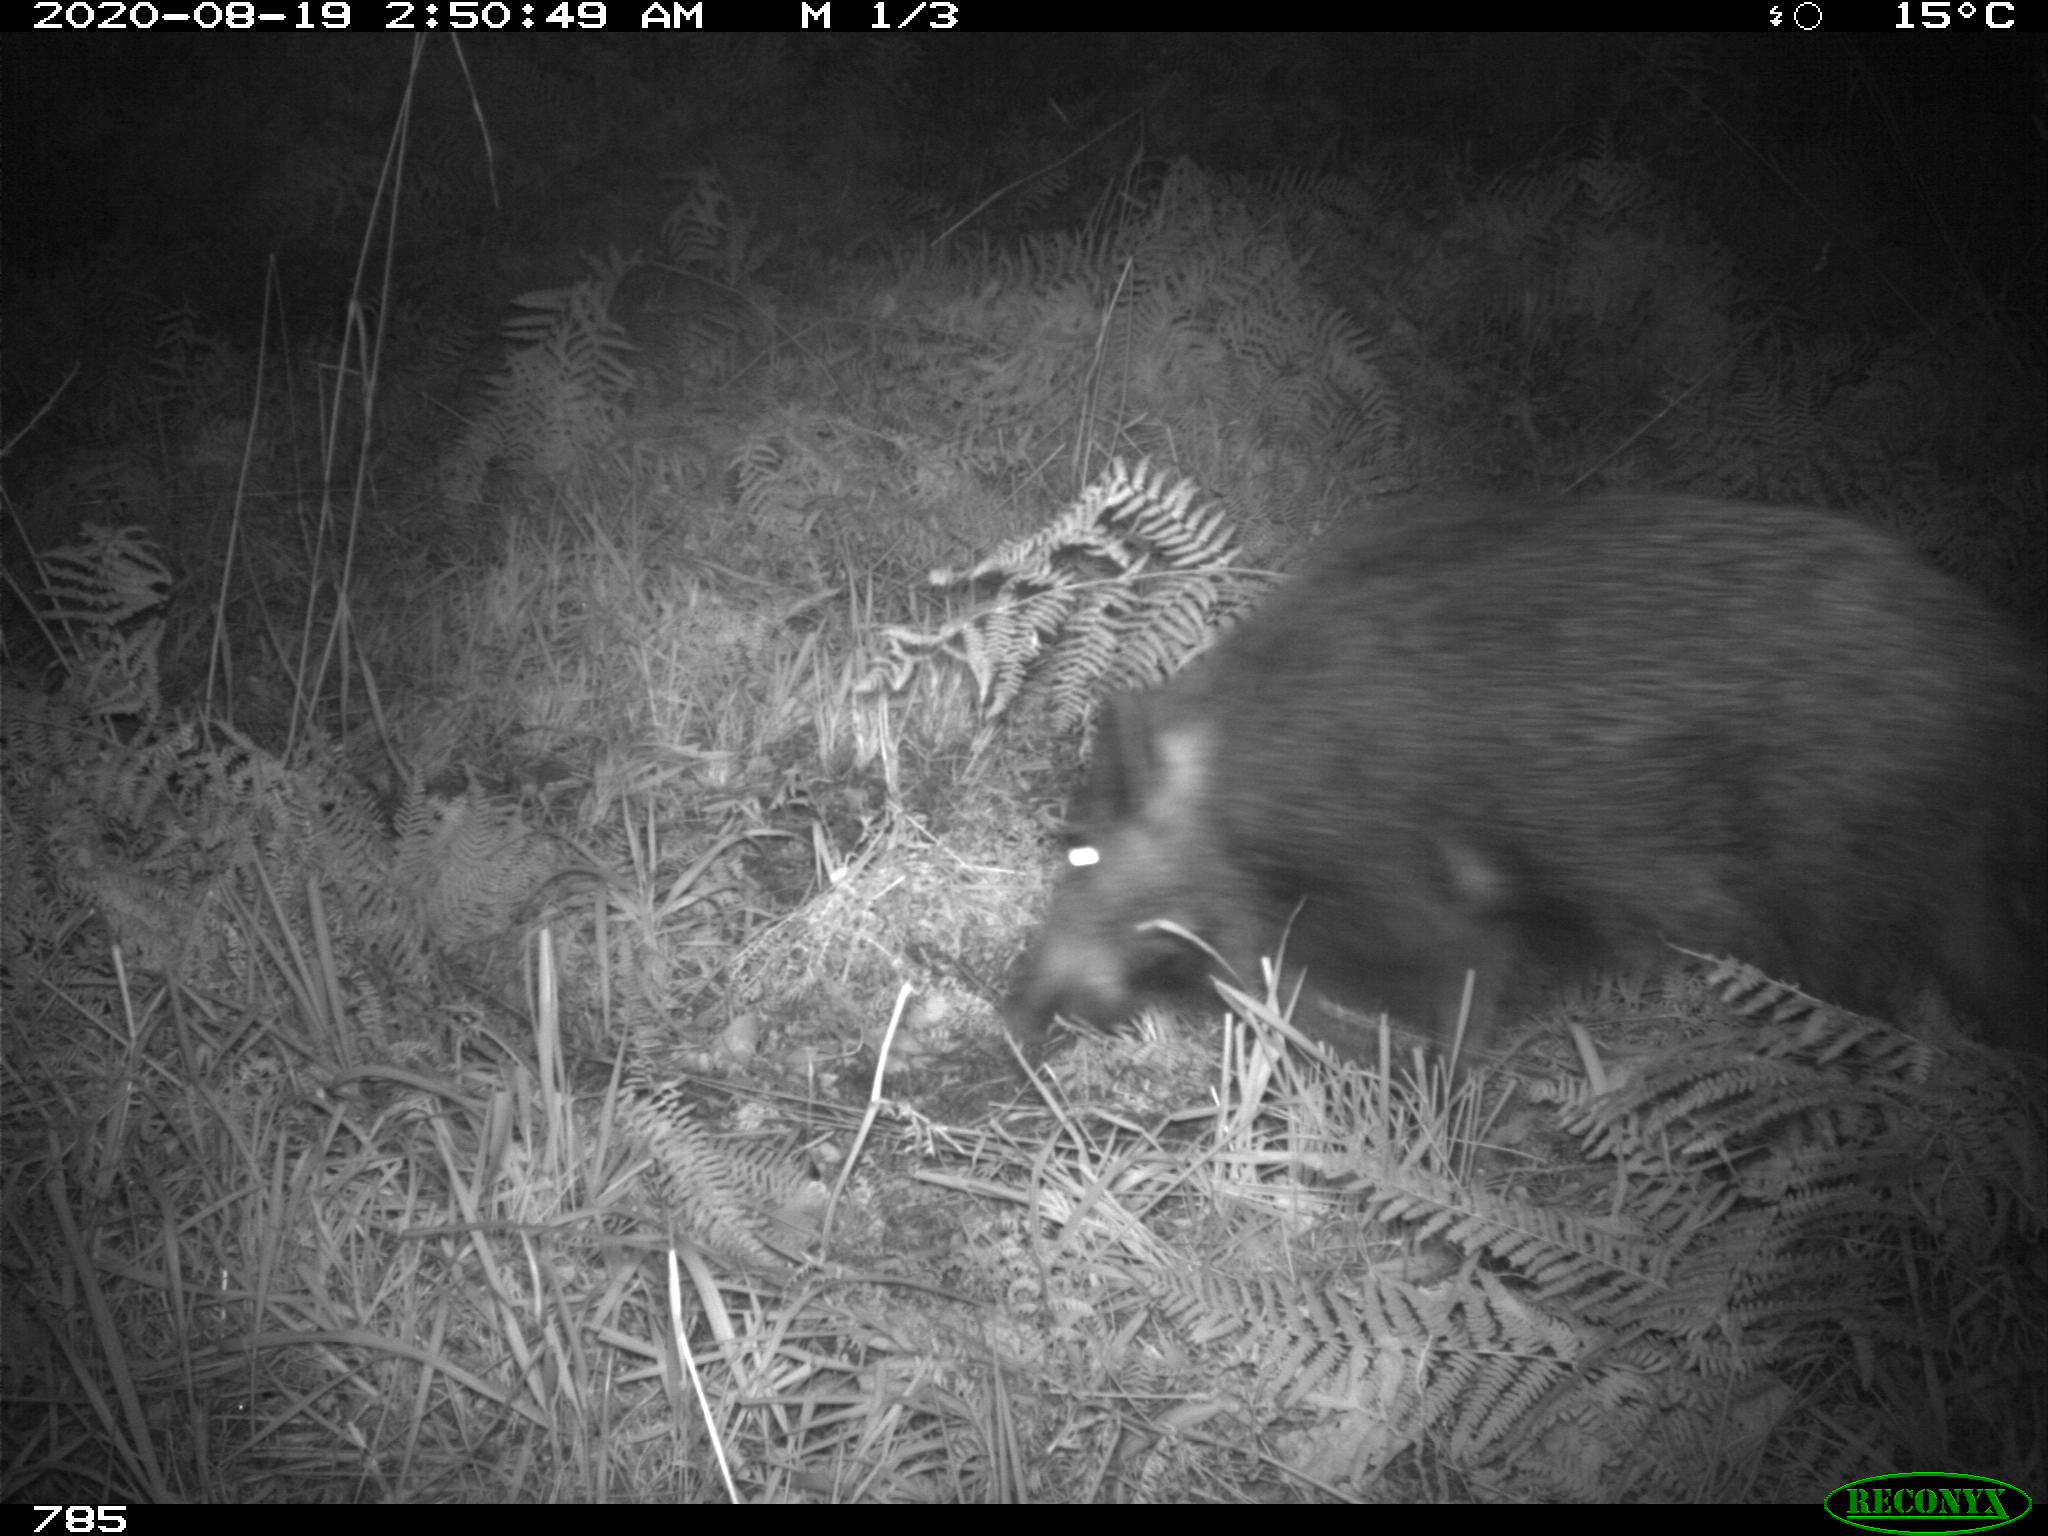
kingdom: Animalia
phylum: Chordata
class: Mammalia
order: Artiodactyla
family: Suidae
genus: Sus
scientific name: Sus scrofa
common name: Wild boar
